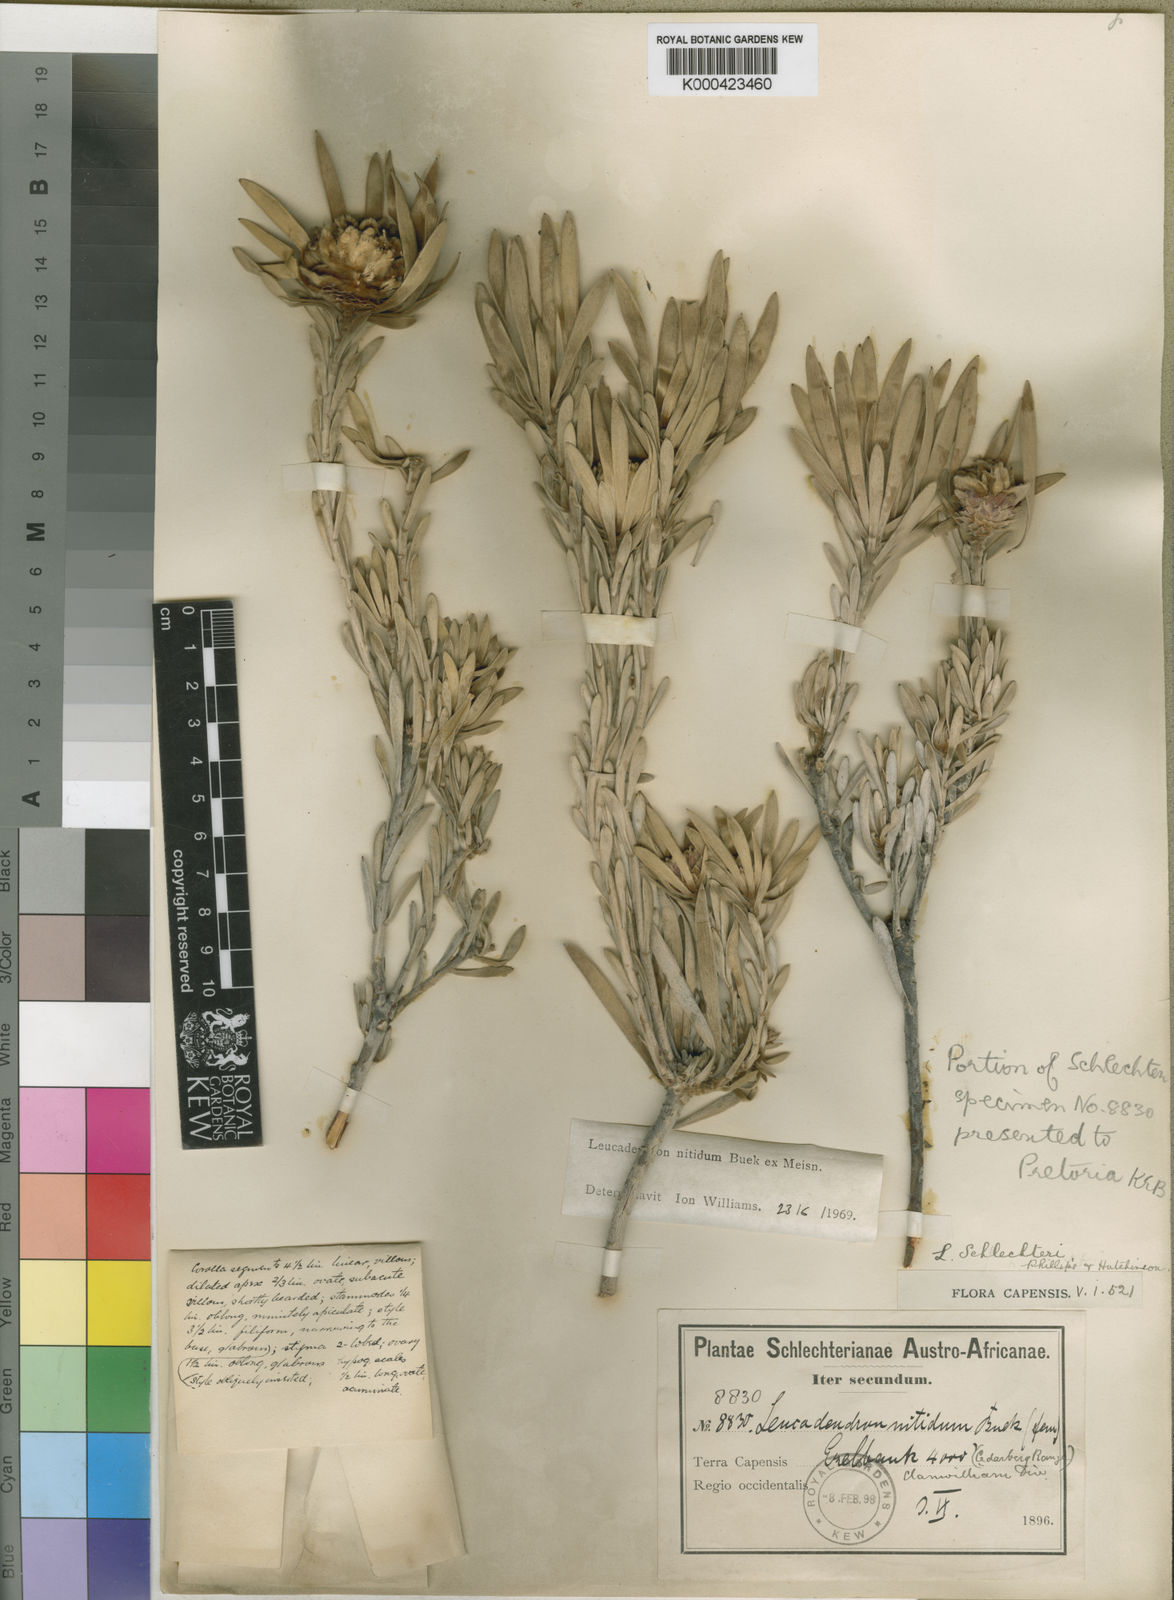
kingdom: Plantae
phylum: Tracheophyta
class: Magnoliopsida
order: Proteales
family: Proteaceae
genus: Leucadendron
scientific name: Leucadendron nitidum
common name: Bokkeveld conebush
